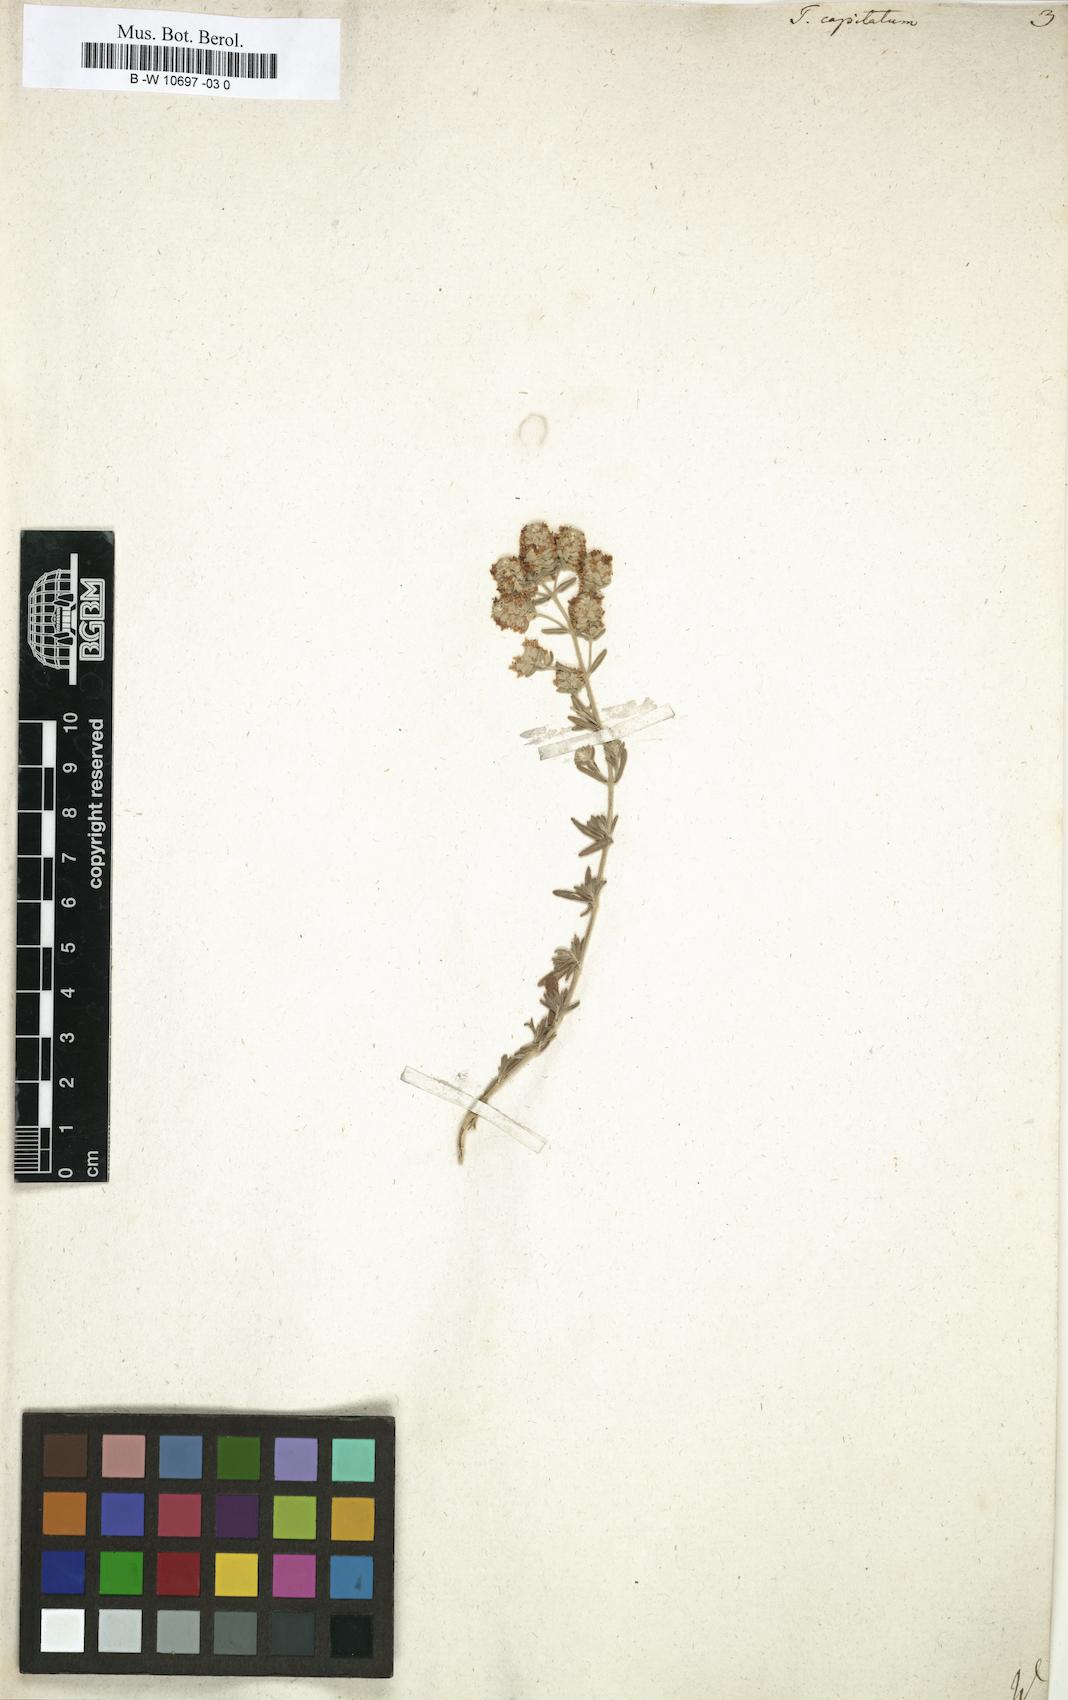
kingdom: Plantae
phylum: Tracheophyta
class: Magnoliopsida
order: Lamiales
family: Lamiaceae
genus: Teucrium
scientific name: Teucrium capitatum
